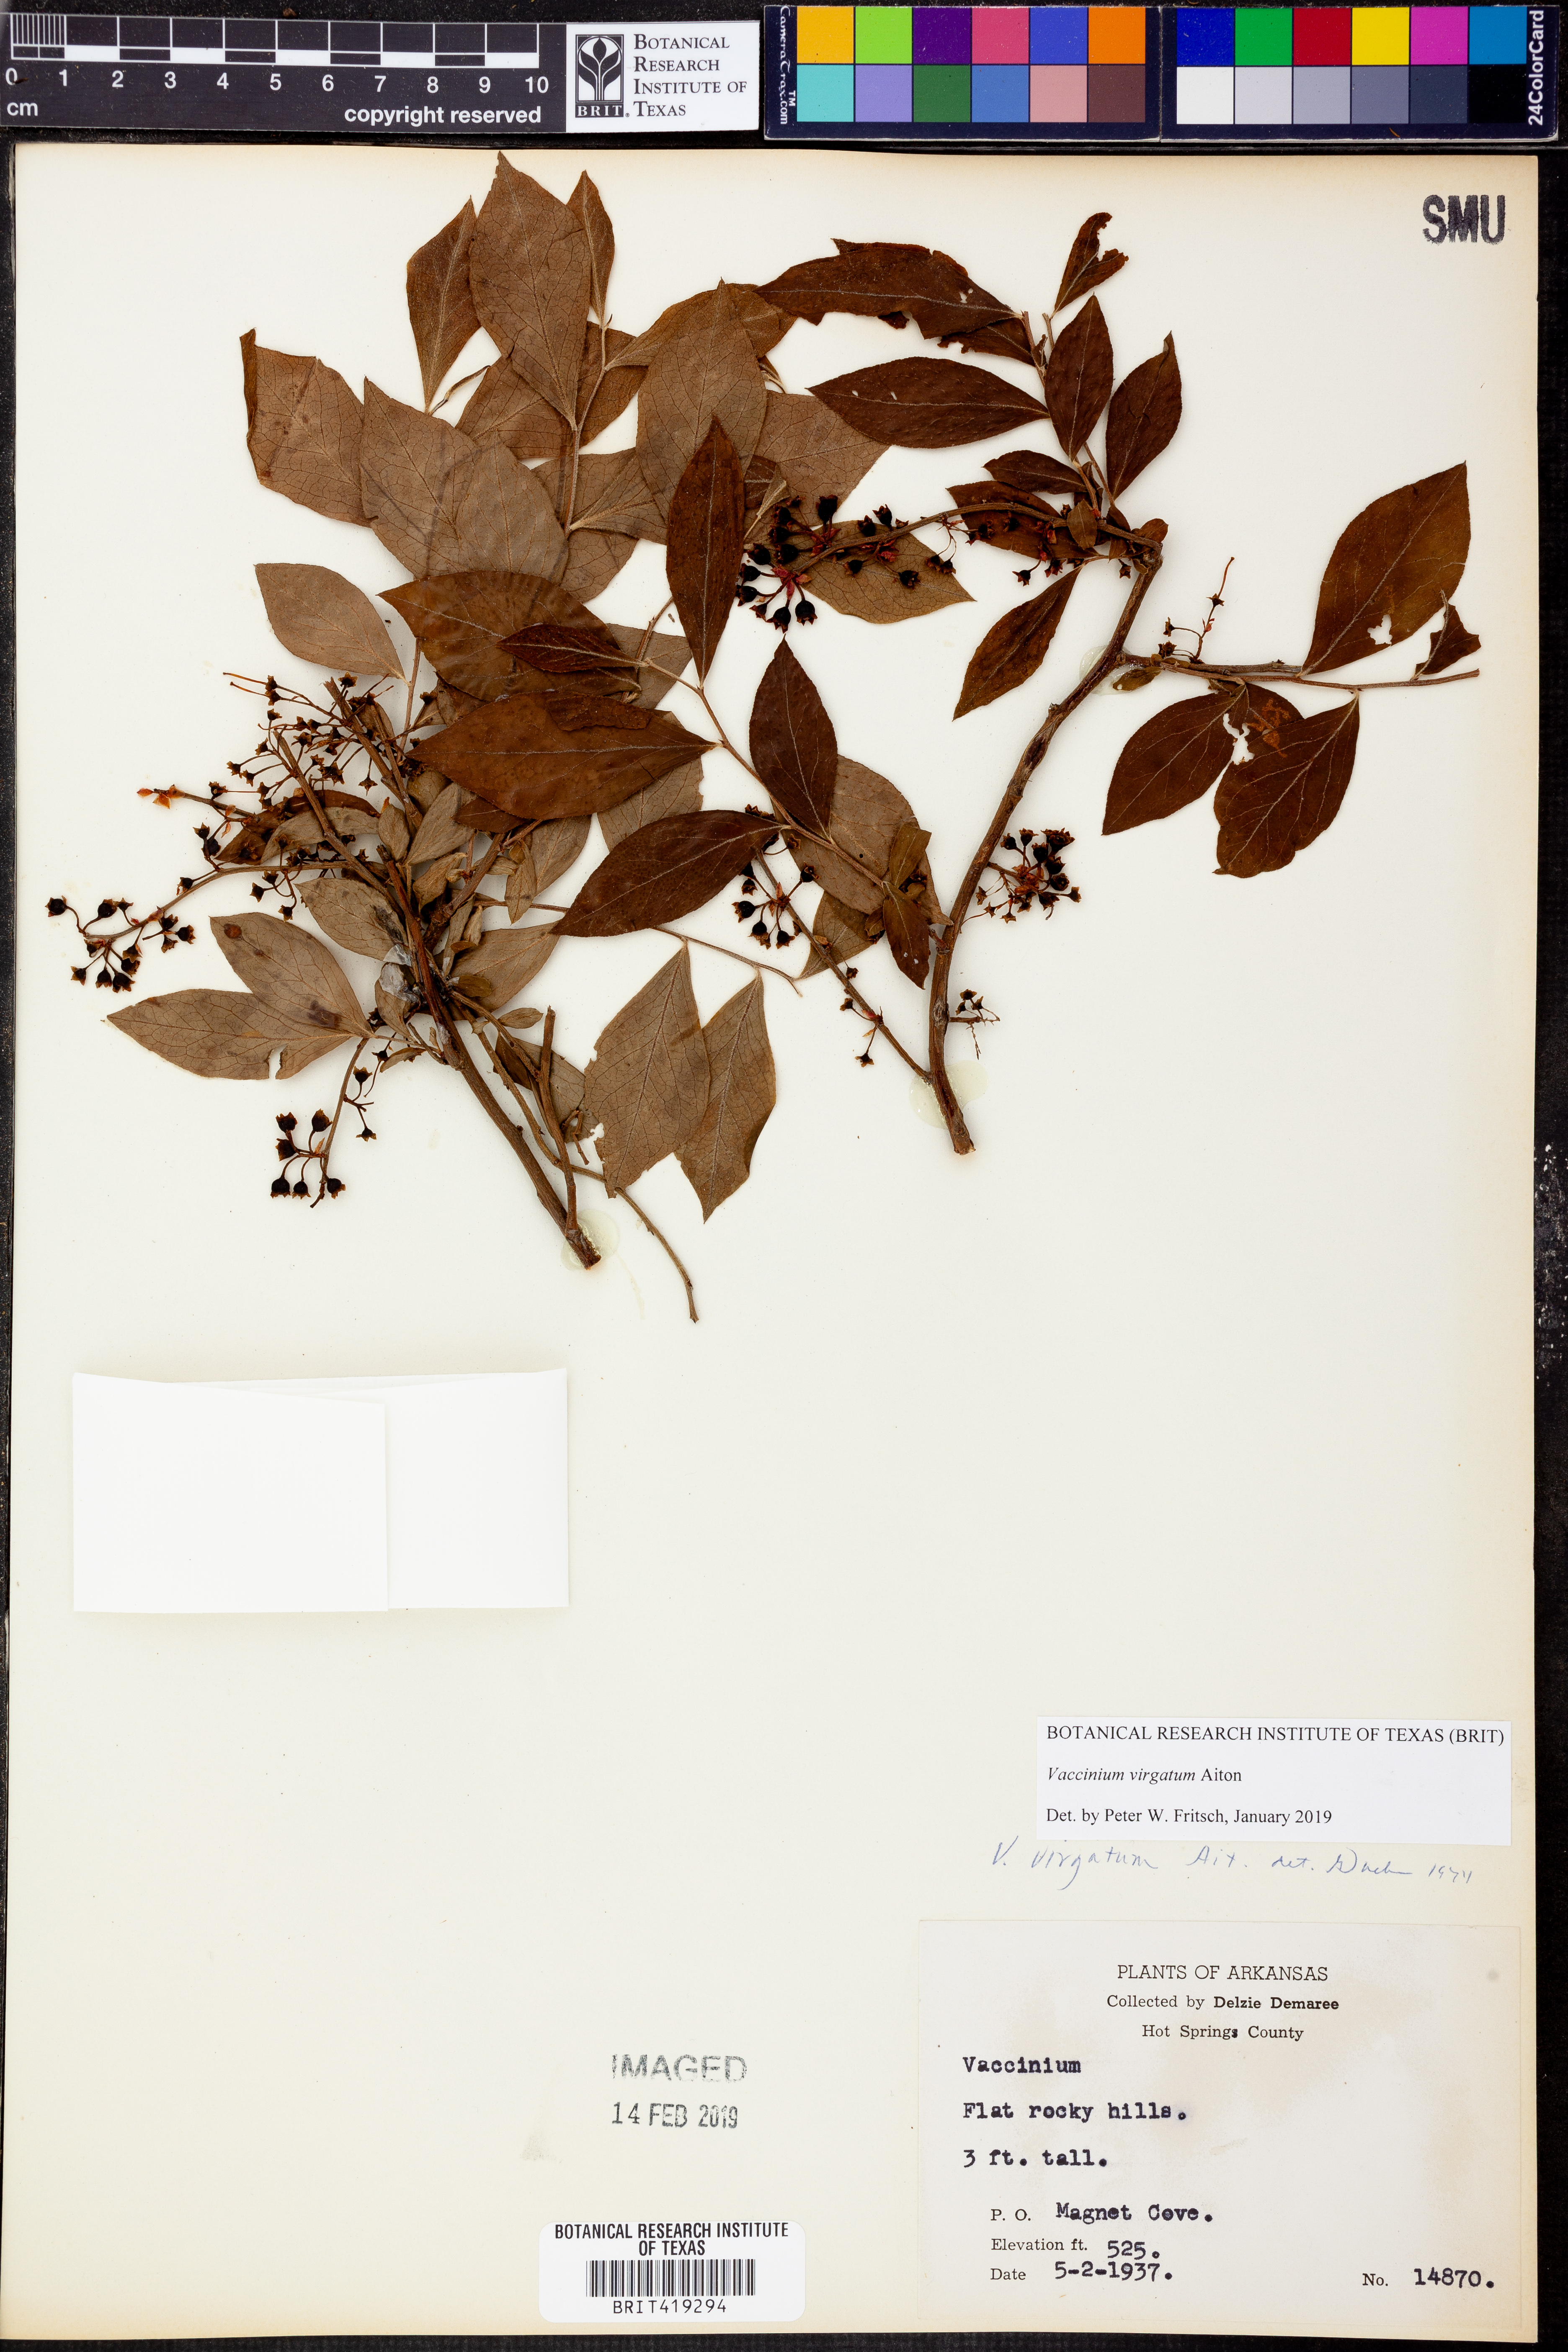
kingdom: Plantae
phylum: Tracheophyta
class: Magnoliopsida
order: Ericales
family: Ericaceae
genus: Vaccinium
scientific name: Vaccinium corymbosum
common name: Blueberry
